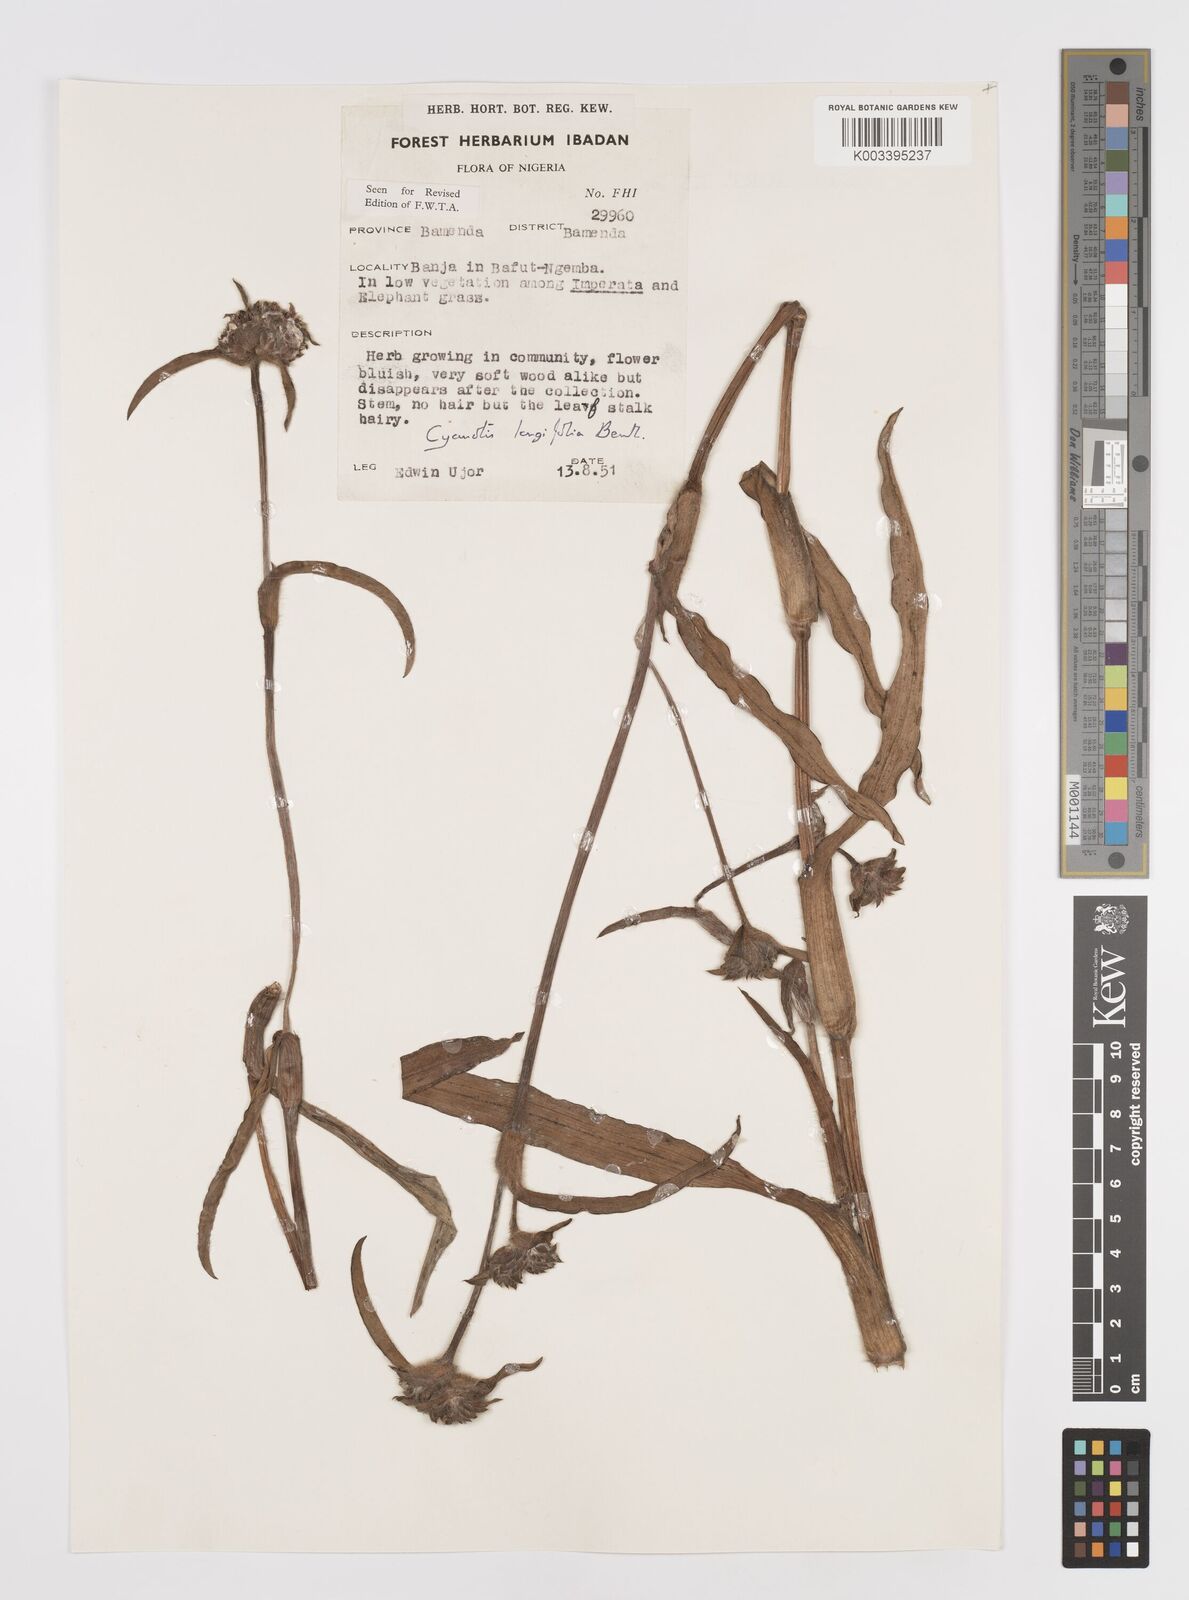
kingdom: Plantae
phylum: Tracheophyta
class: Liliopsida
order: Commelinales
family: Commelinaceae
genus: Cyanotis
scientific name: Cyanotis
